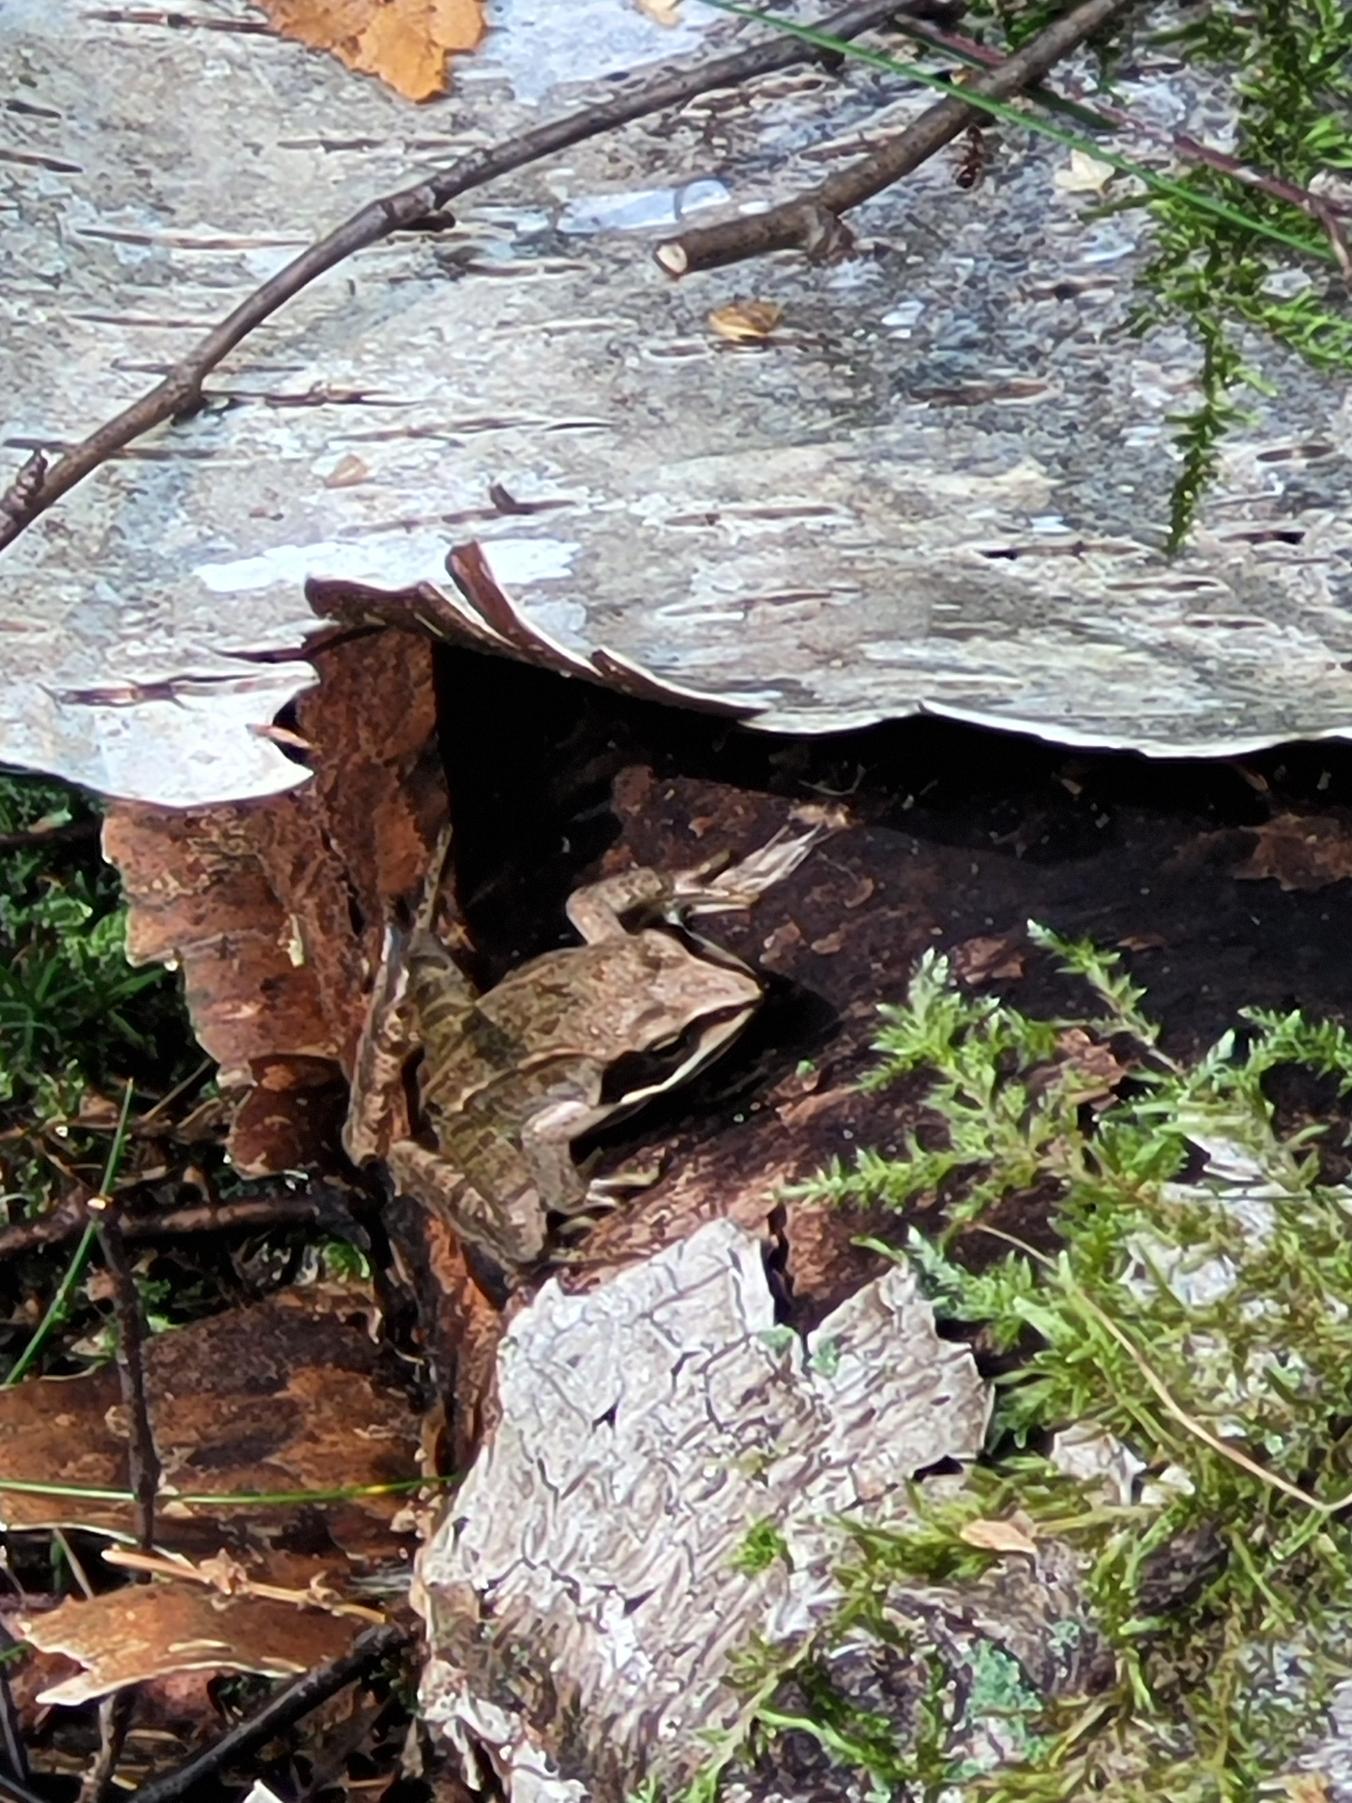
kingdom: Animalia
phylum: Chordata
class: Amphibia
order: Anura
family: Ranidae
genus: Rana
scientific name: Rana
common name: Rana
